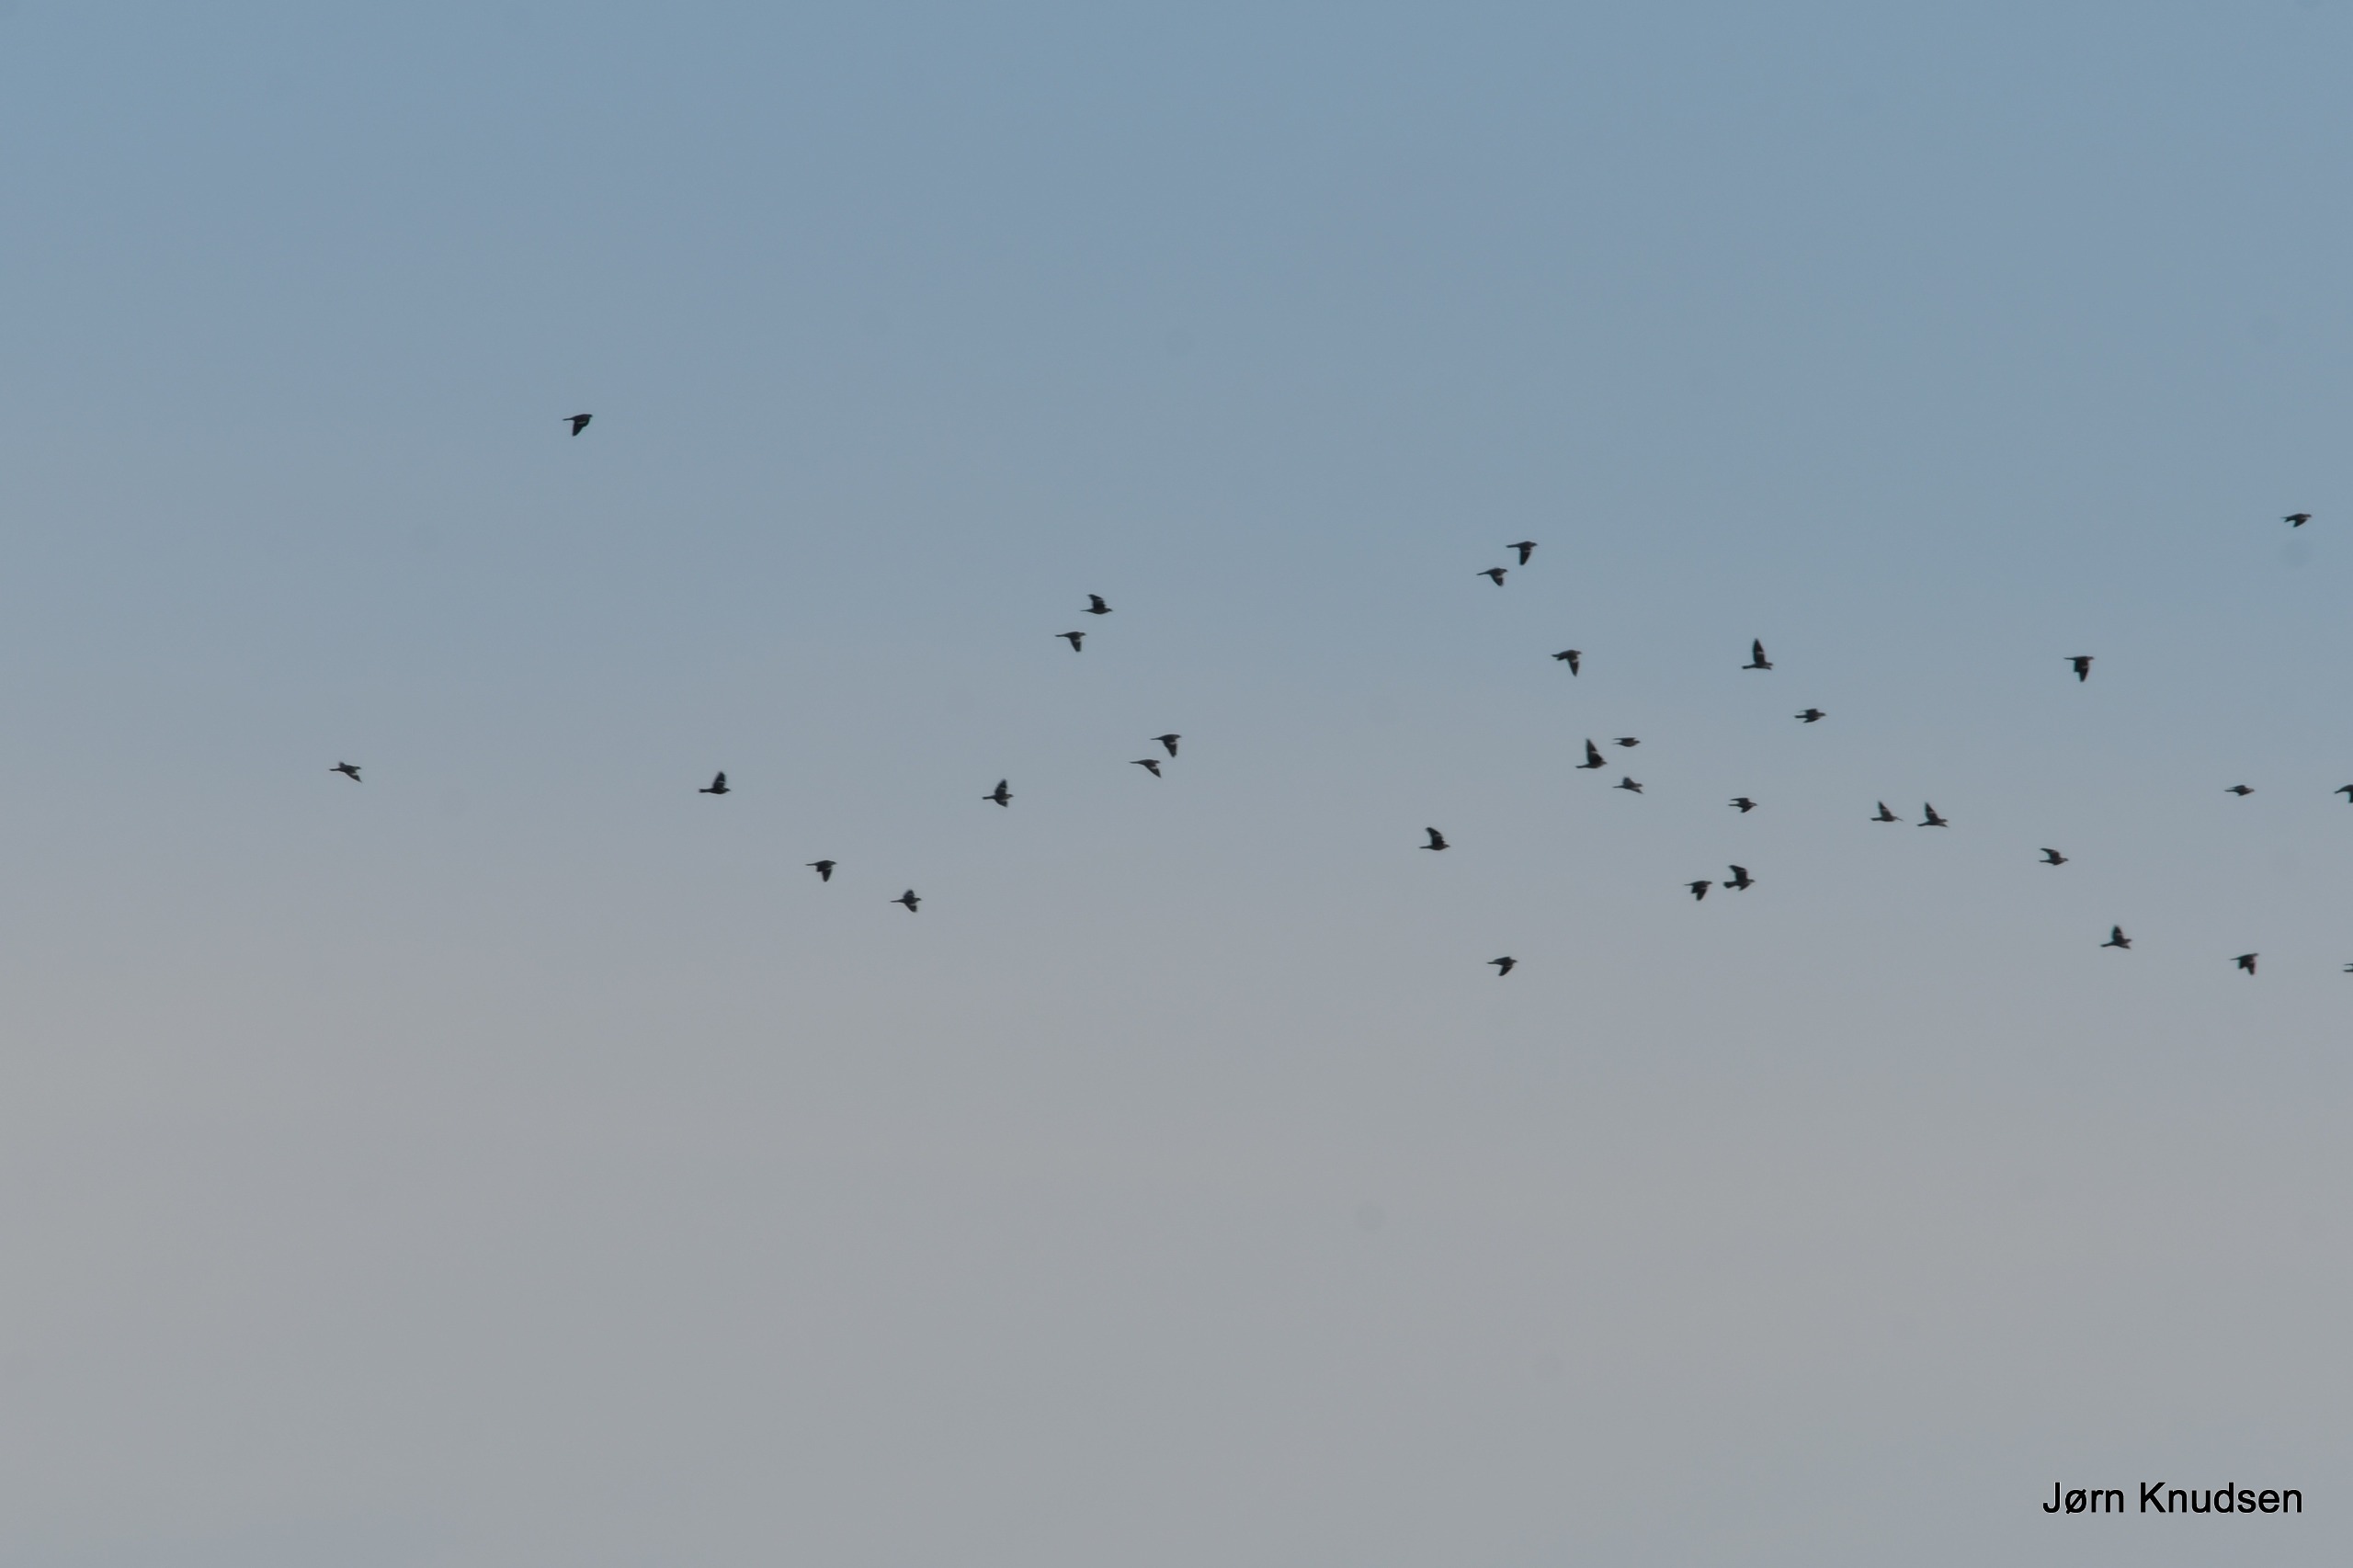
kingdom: Animalia
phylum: Chordata
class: Aves
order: Columbiformes
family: Columbidae
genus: Columba
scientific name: Columba palumbus
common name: Ringdue
